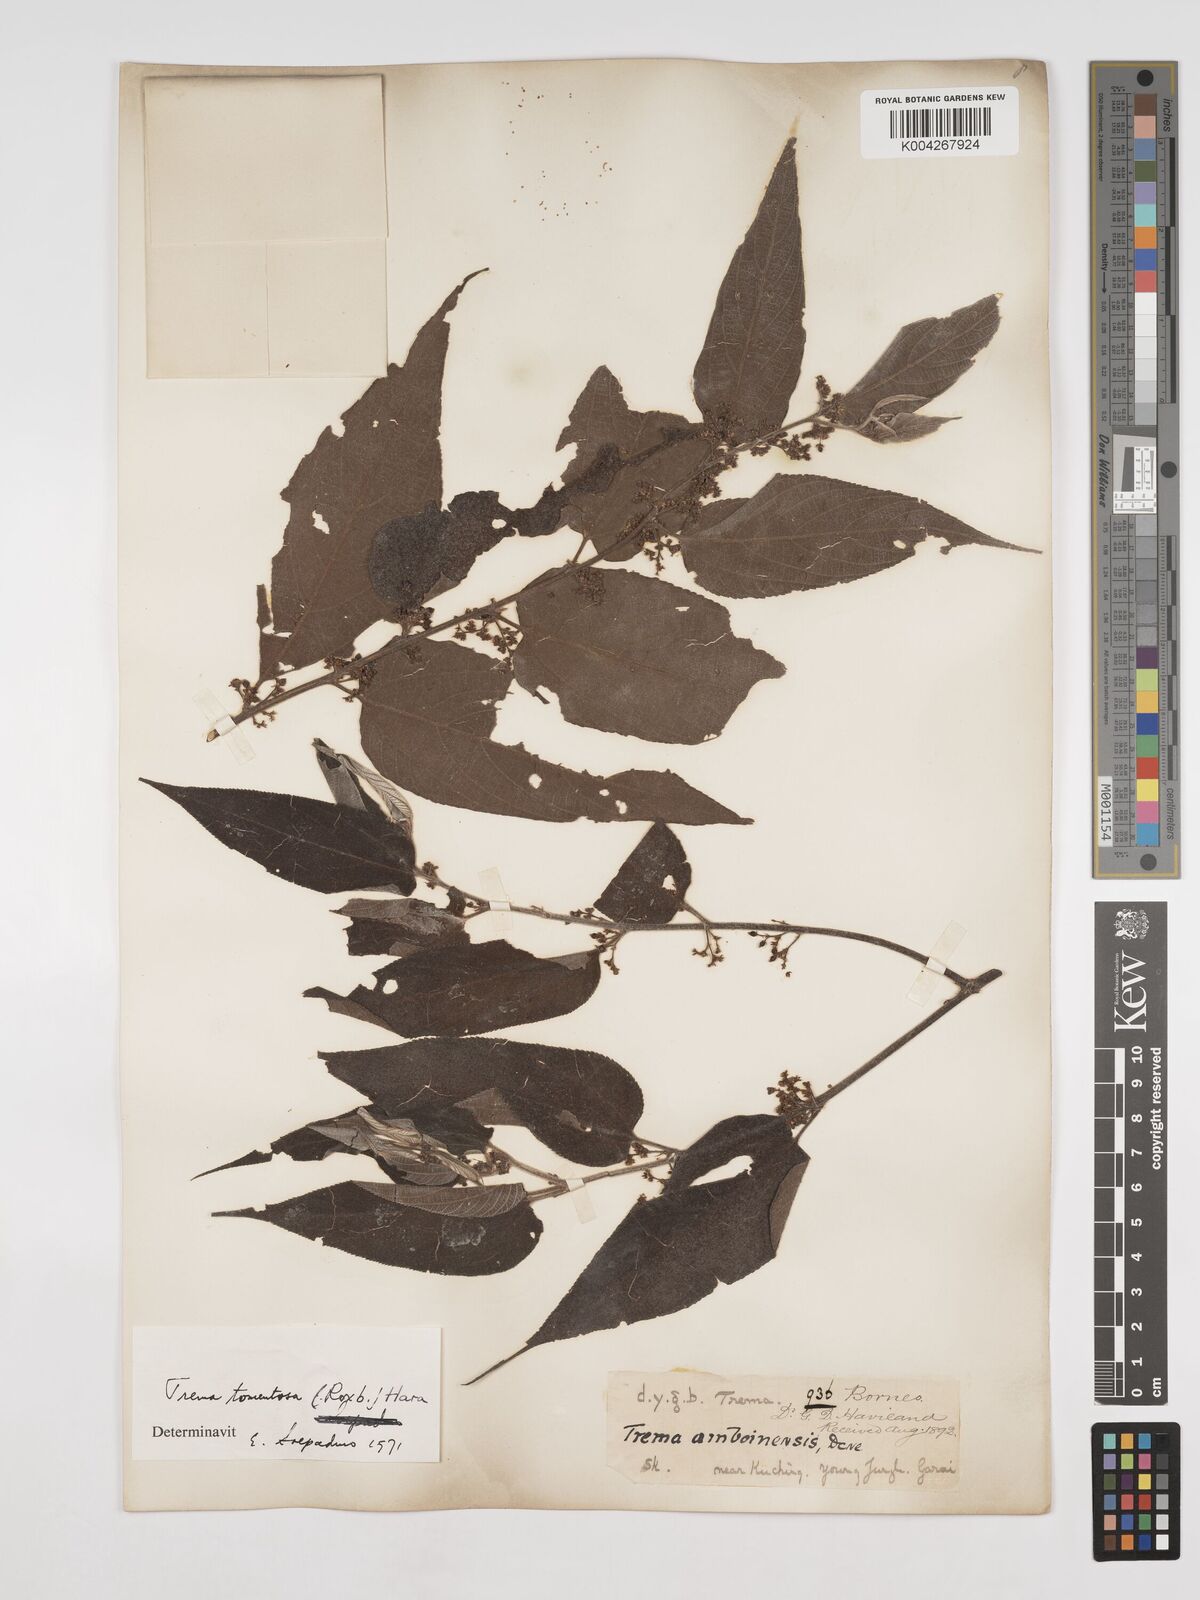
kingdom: Plantae
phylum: Tracheophyta
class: Magnoliopsida
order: Rosales
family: Cannabaceae
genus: Trema
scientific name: Trema tomentosum
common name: Peach-leaf-poisonbush
